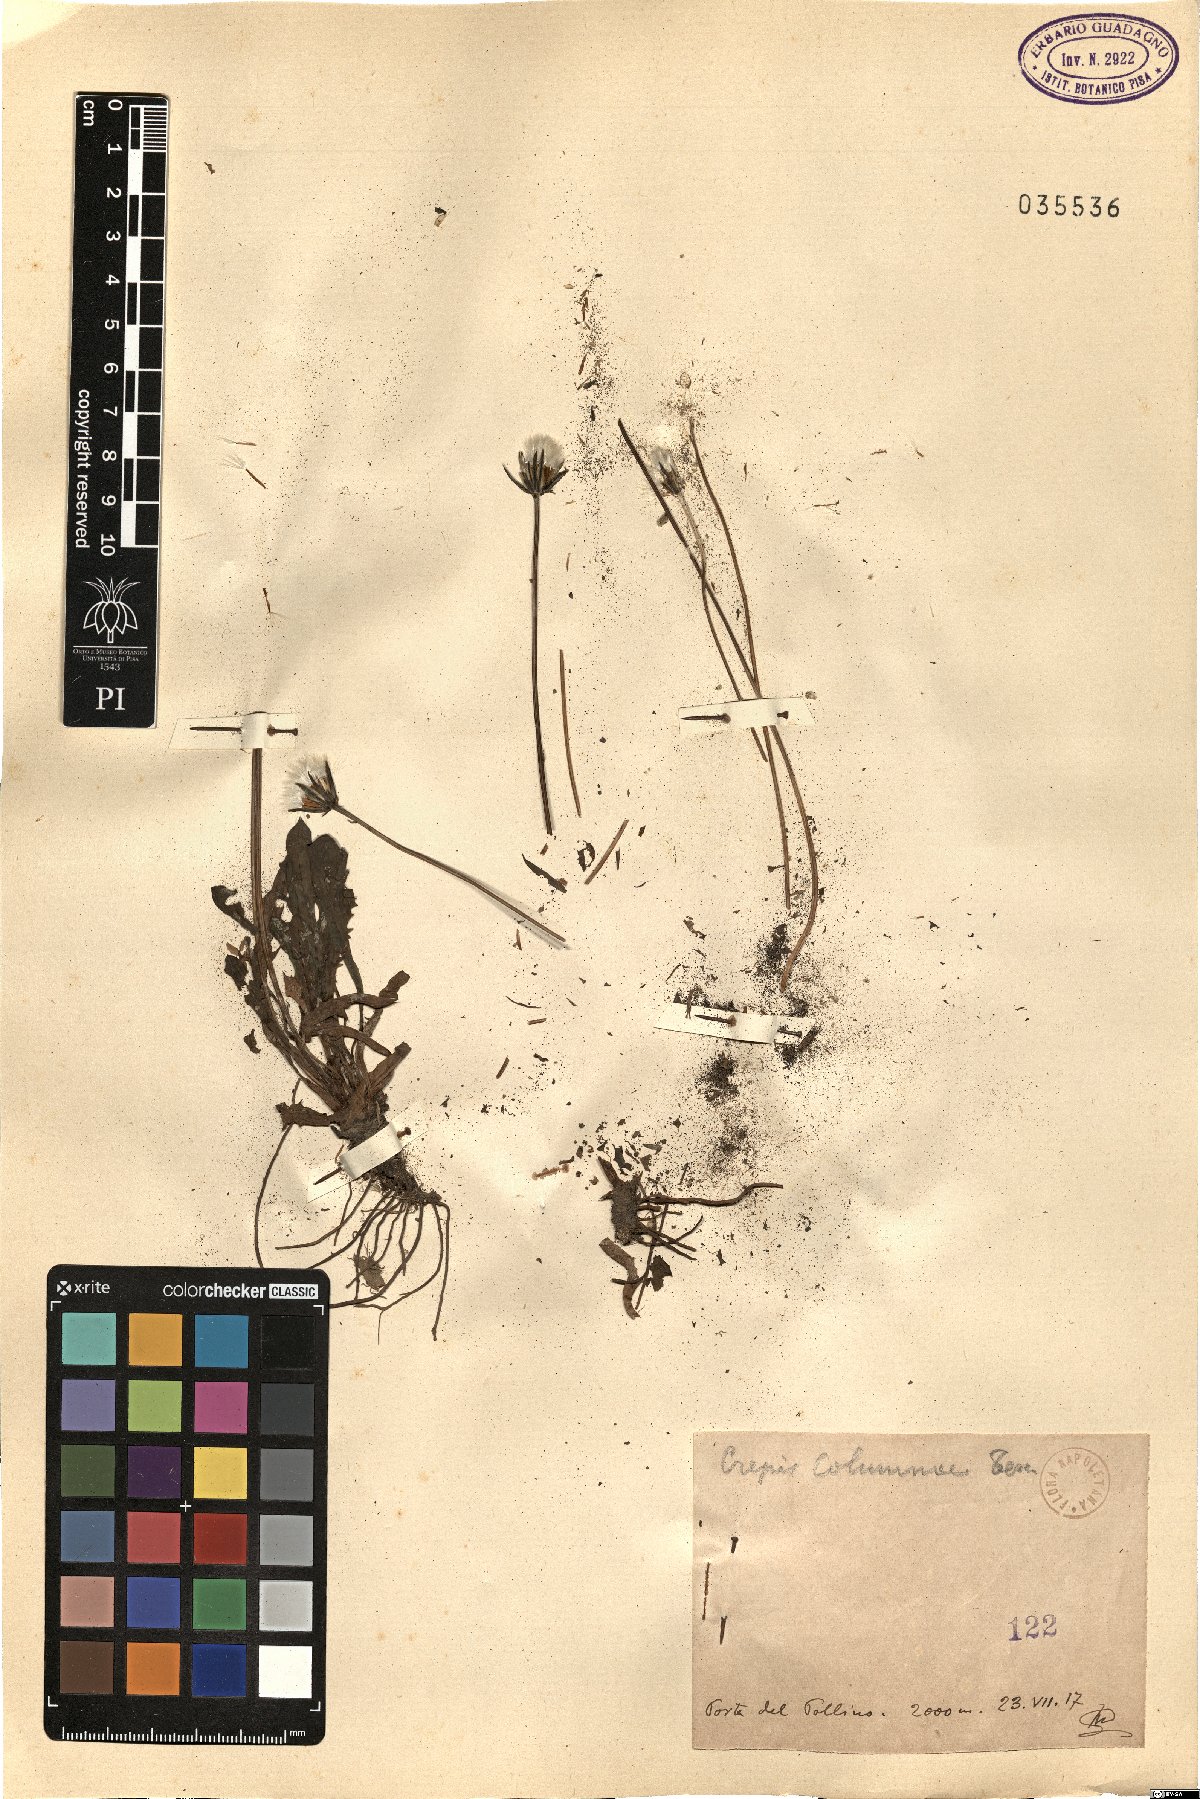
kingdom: Plantae
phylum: Tracheophyta
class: Magnoliopsida
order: Asterales
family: Asteraceae
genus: Crepis
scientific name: Crepis aurea
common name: Golden hawk's-beard
